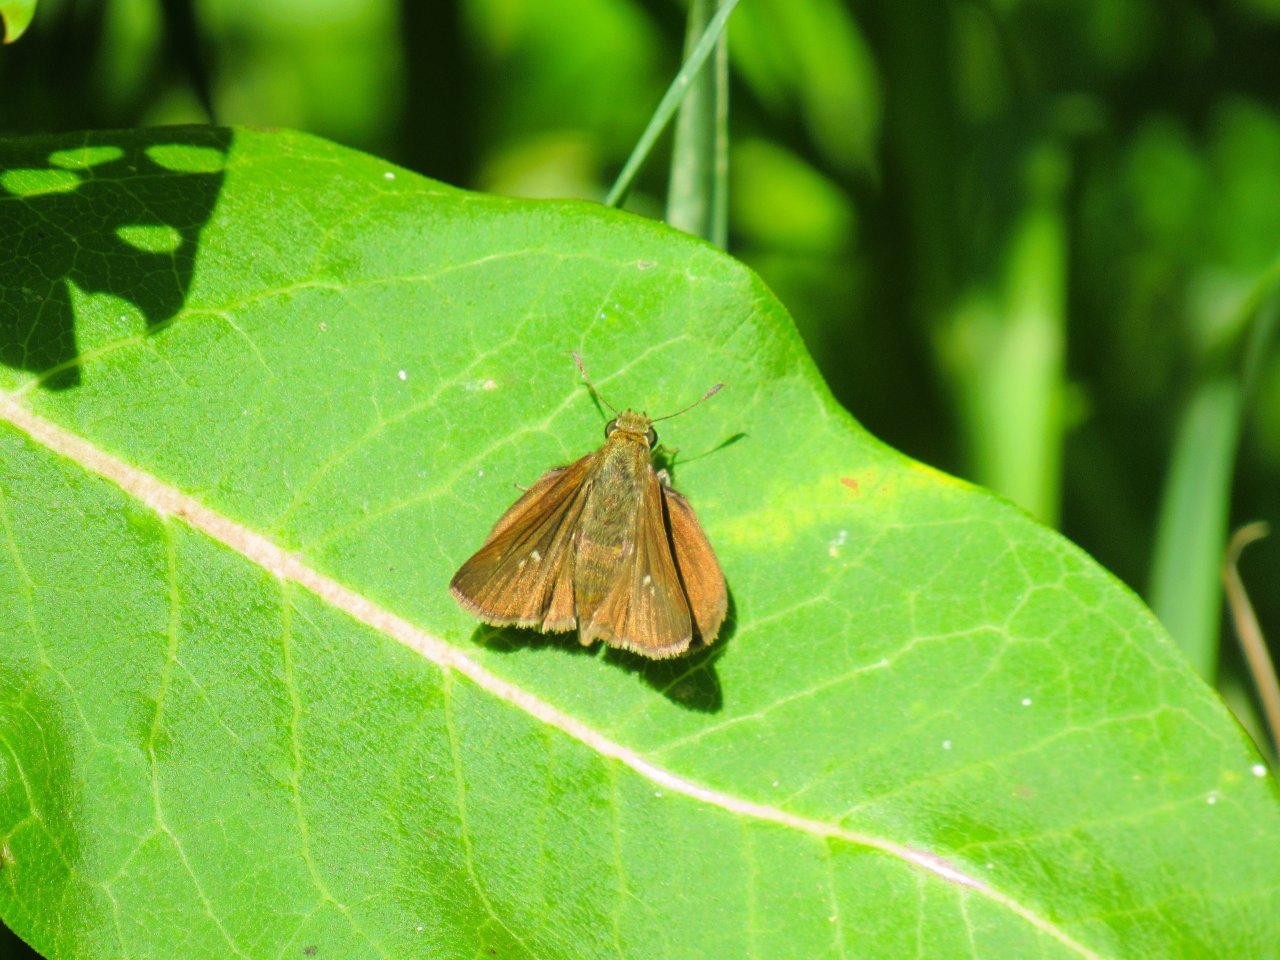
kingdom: Animalia
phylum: Arthropoda
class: Insecta
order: Lepidoptera
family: Hesperiidae
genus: Euphyes
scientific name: Euphyes vestris
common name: Dun Skipper
